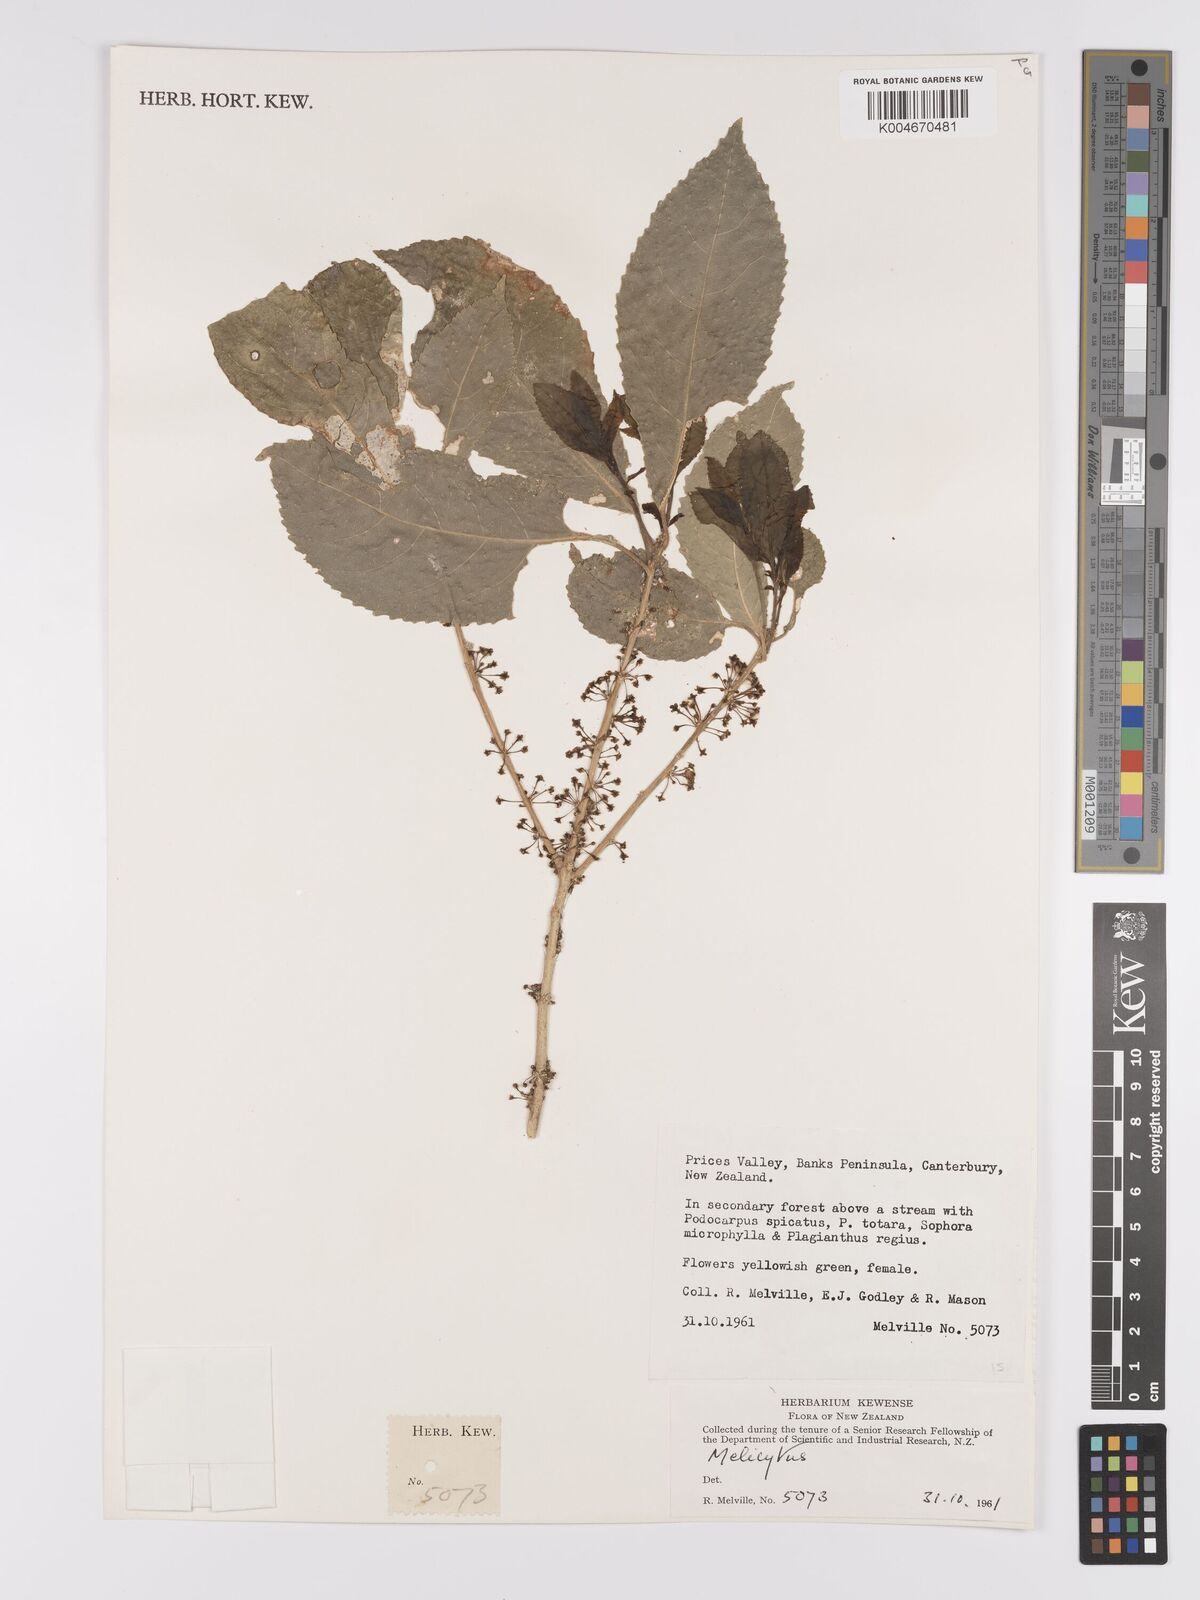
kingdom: Plantae
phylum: Tracheophyta
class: Magnoliopsida
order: Malpighiales
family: Violaceae
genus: Melicytus
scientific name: Melicytus
